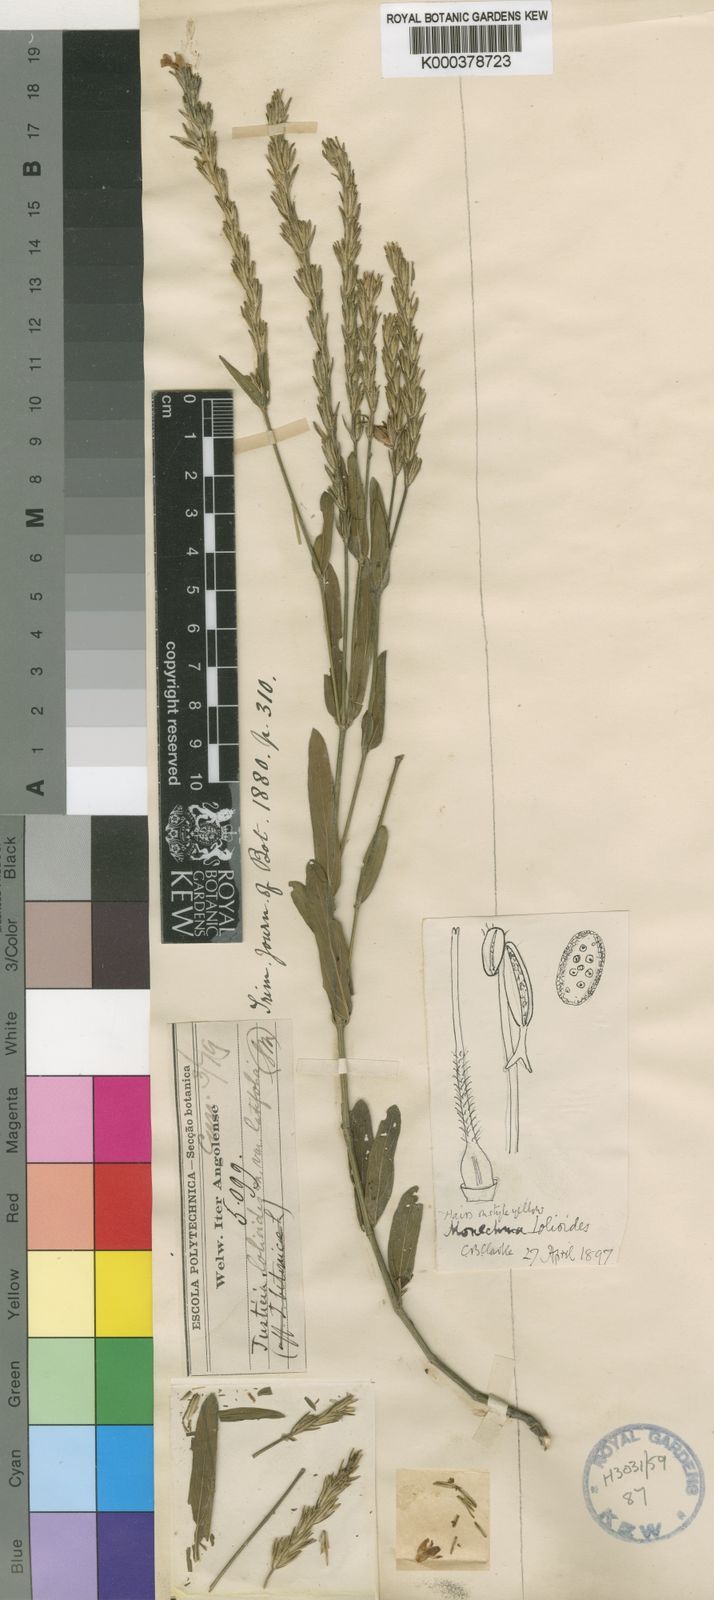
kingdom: Plantae
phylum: Tracheophyta
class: Magnoliopsida
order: Lamiales
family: Acanthaceae
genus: Monechma
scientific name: Monechma lolioides
